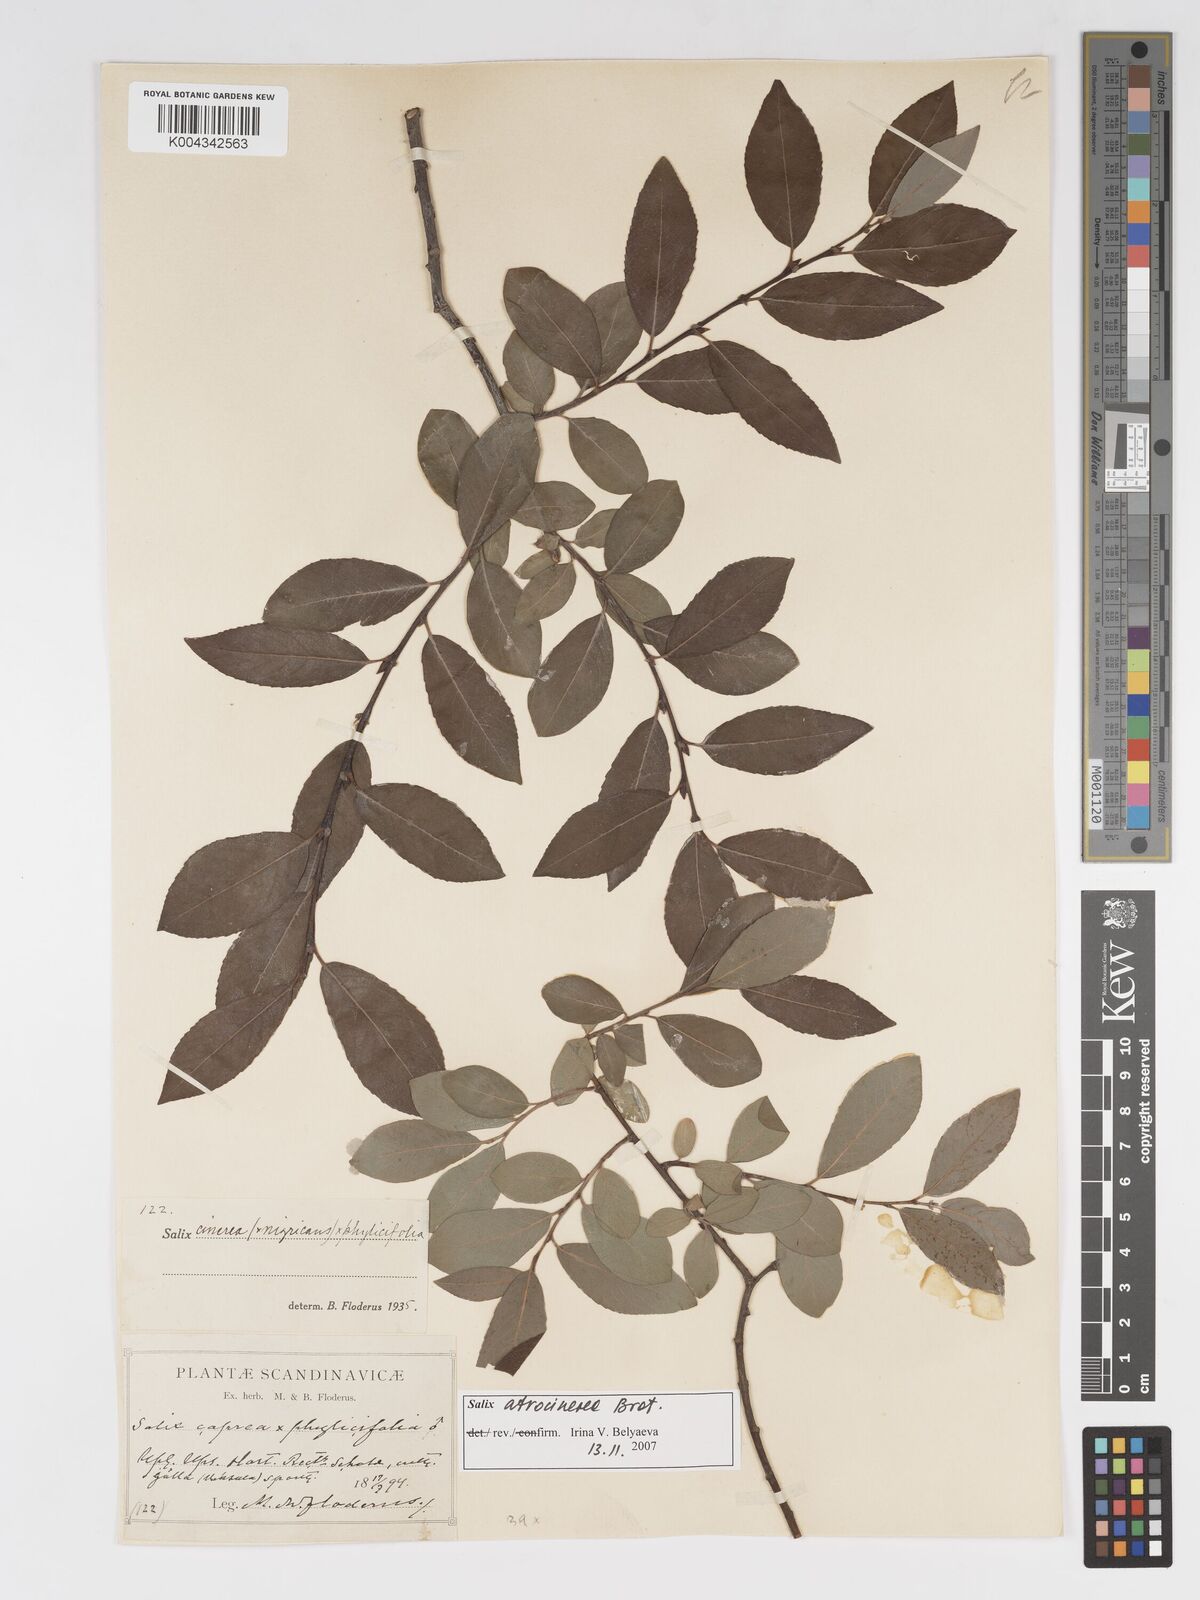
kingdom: Plantae
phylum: Tracheophyta
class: Magnoliopsida
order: Malpighiales
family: Salicaceae
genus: Salix
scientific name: Salix cinerea
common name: Common sallow
